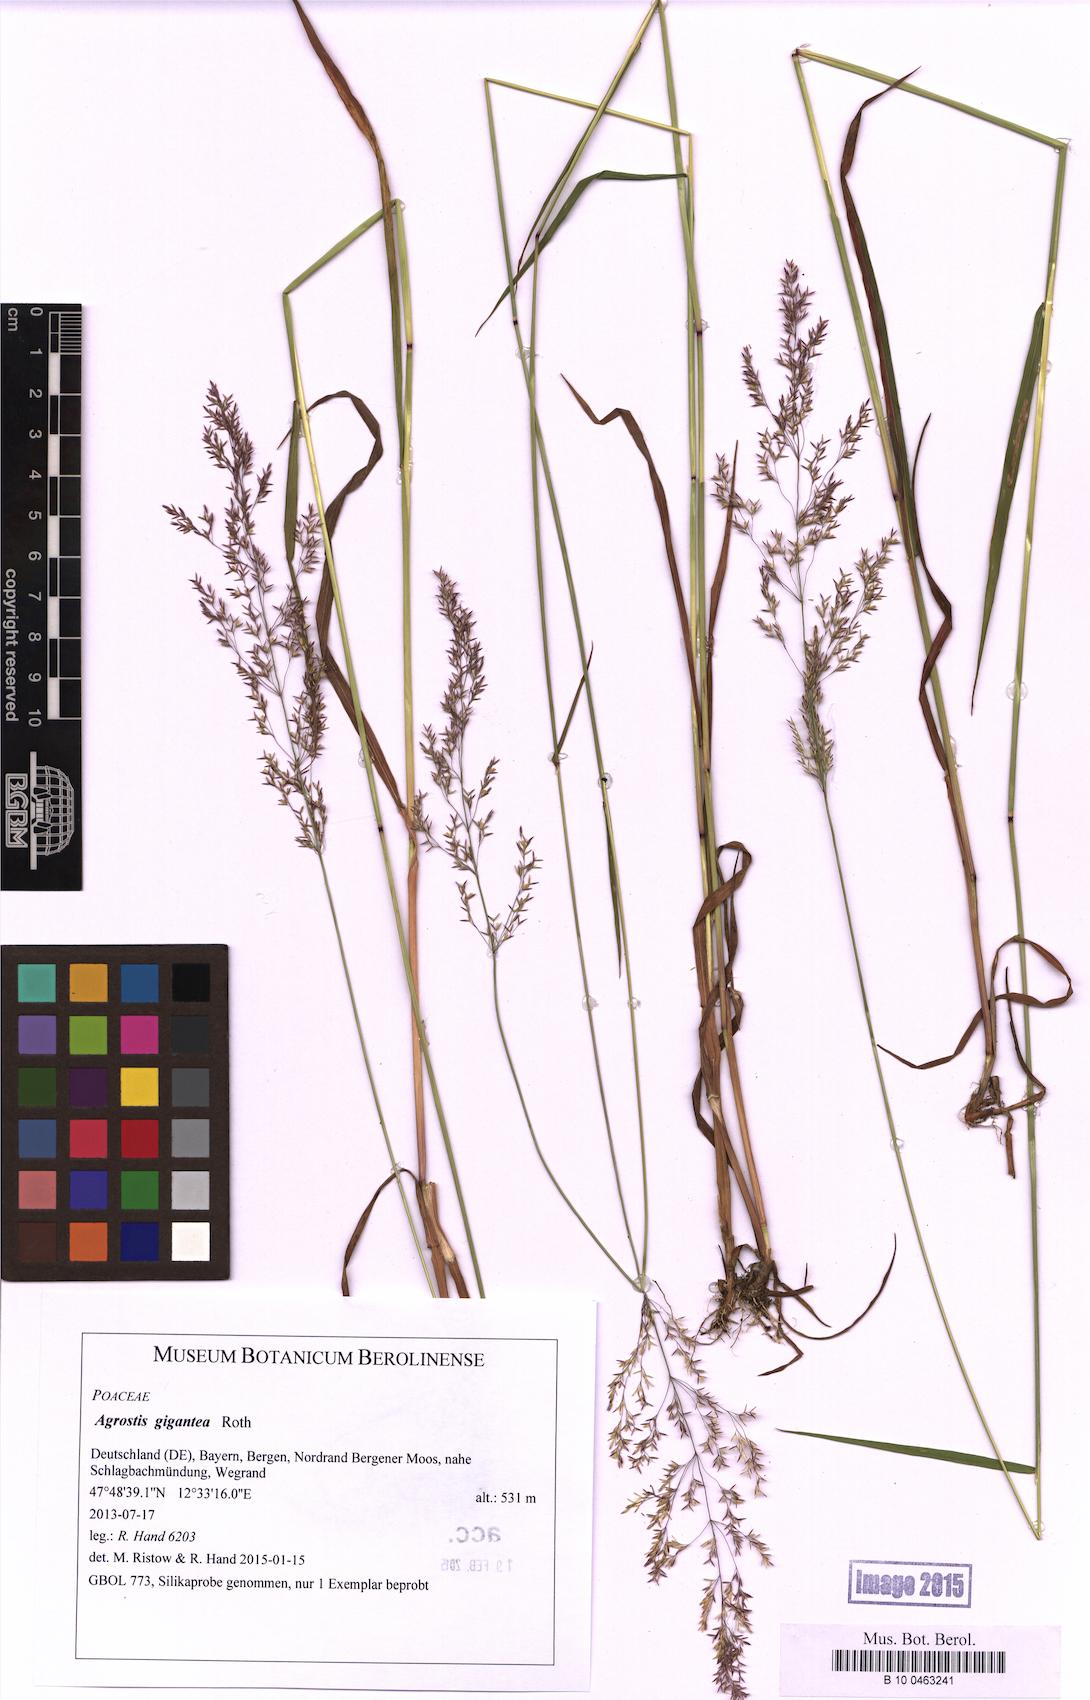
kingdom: Plantae
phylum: Tracheophyta
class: Liliopsida
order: Poales
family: Poaceae
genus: Agrostis
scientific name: Agrostis gigantea
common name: Black bent
